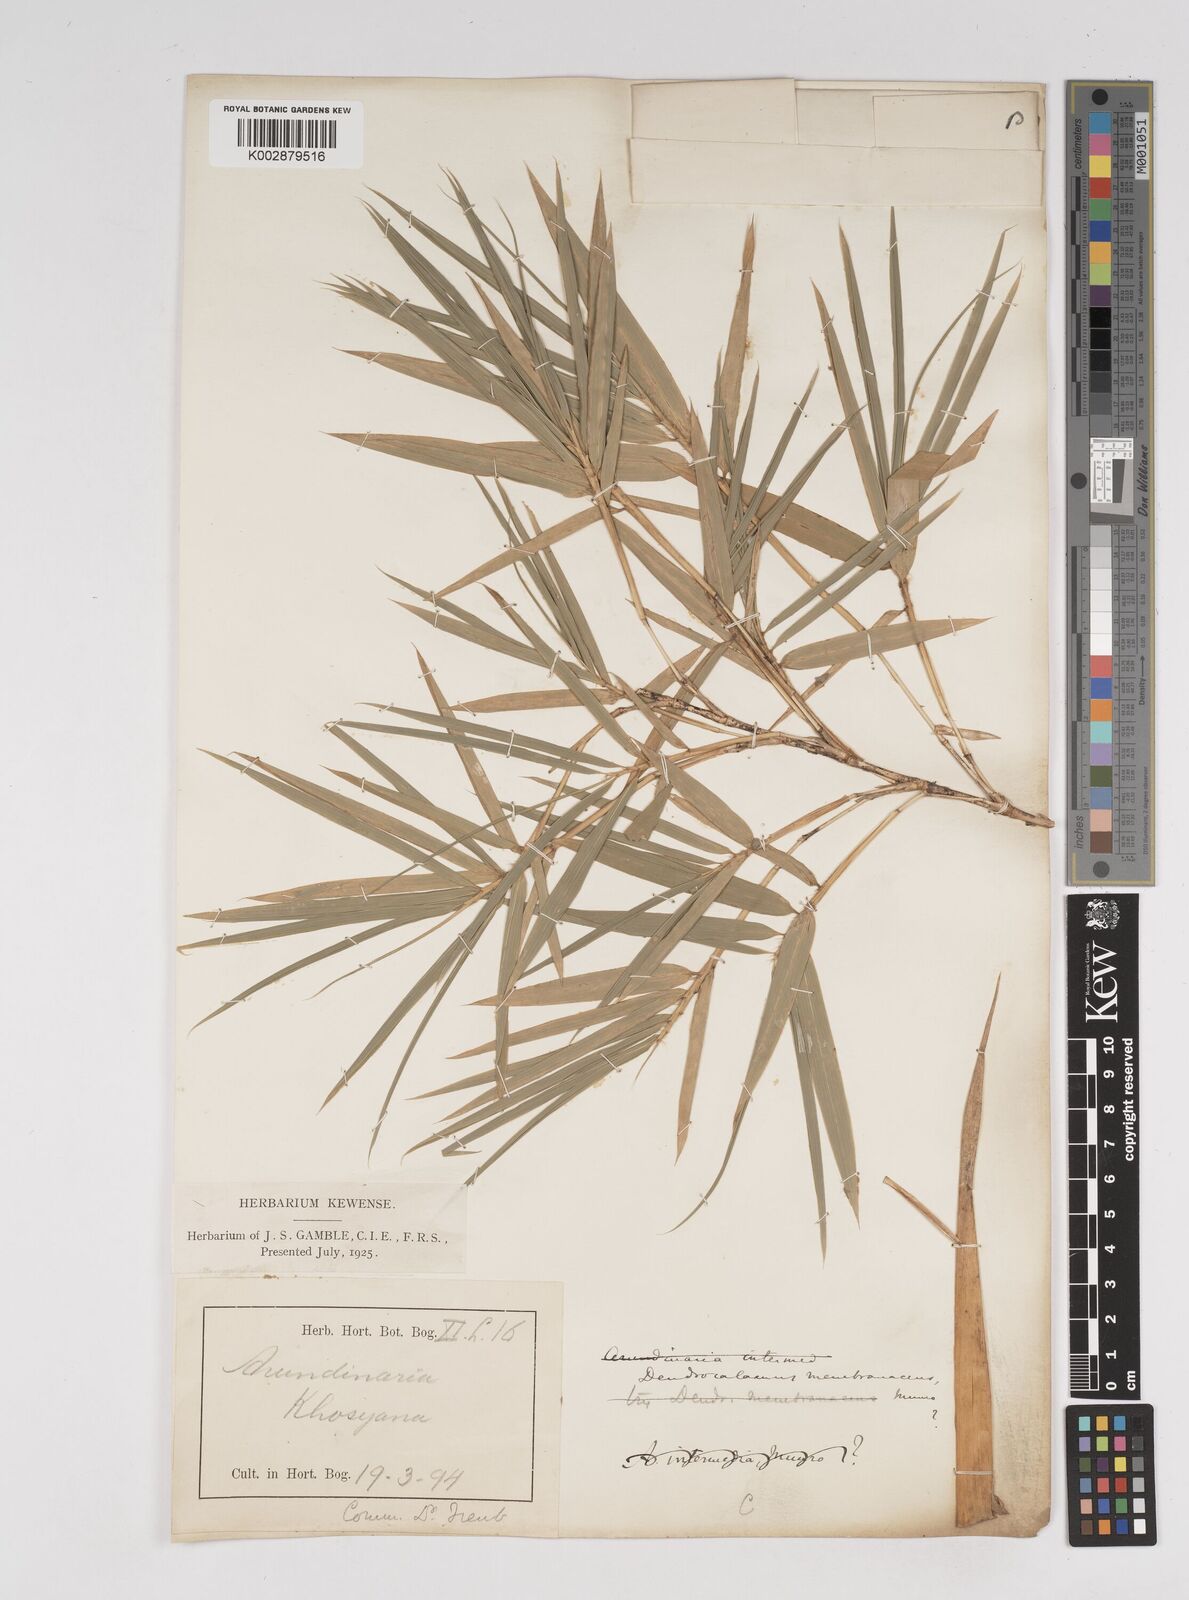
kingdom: Plantae
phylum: Tracheophyta
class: Liliopsida
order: Poales
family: Poaceae
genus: Dendrocalamus
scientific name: Dendrocalamus membranaceus
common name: White bamboo
